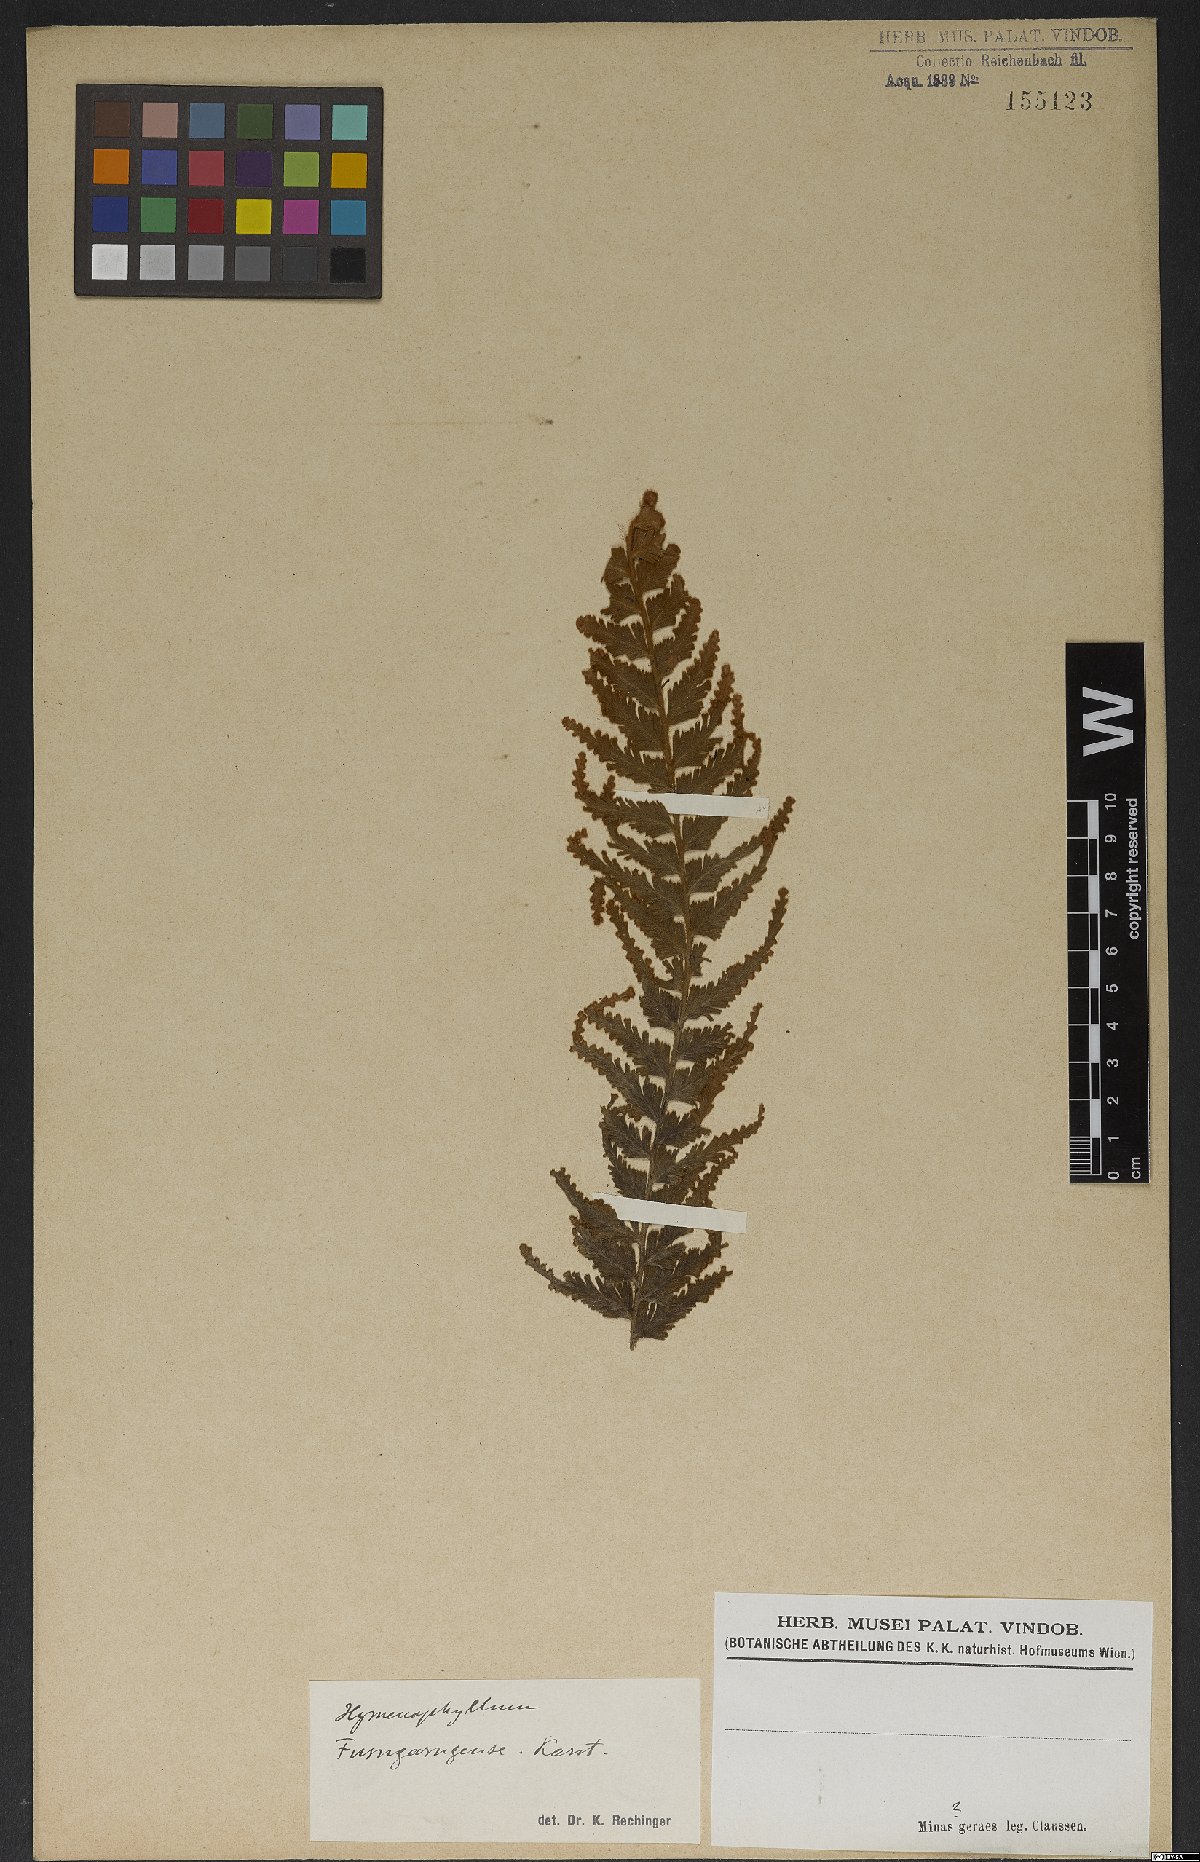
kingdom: Plantae
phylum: Tracheophyta
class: Polypodiopsida
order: Hymenophyllales
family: Hymenophyllaceae
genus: Hymenophyllum
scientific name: Hymenophyllum tomentosum
